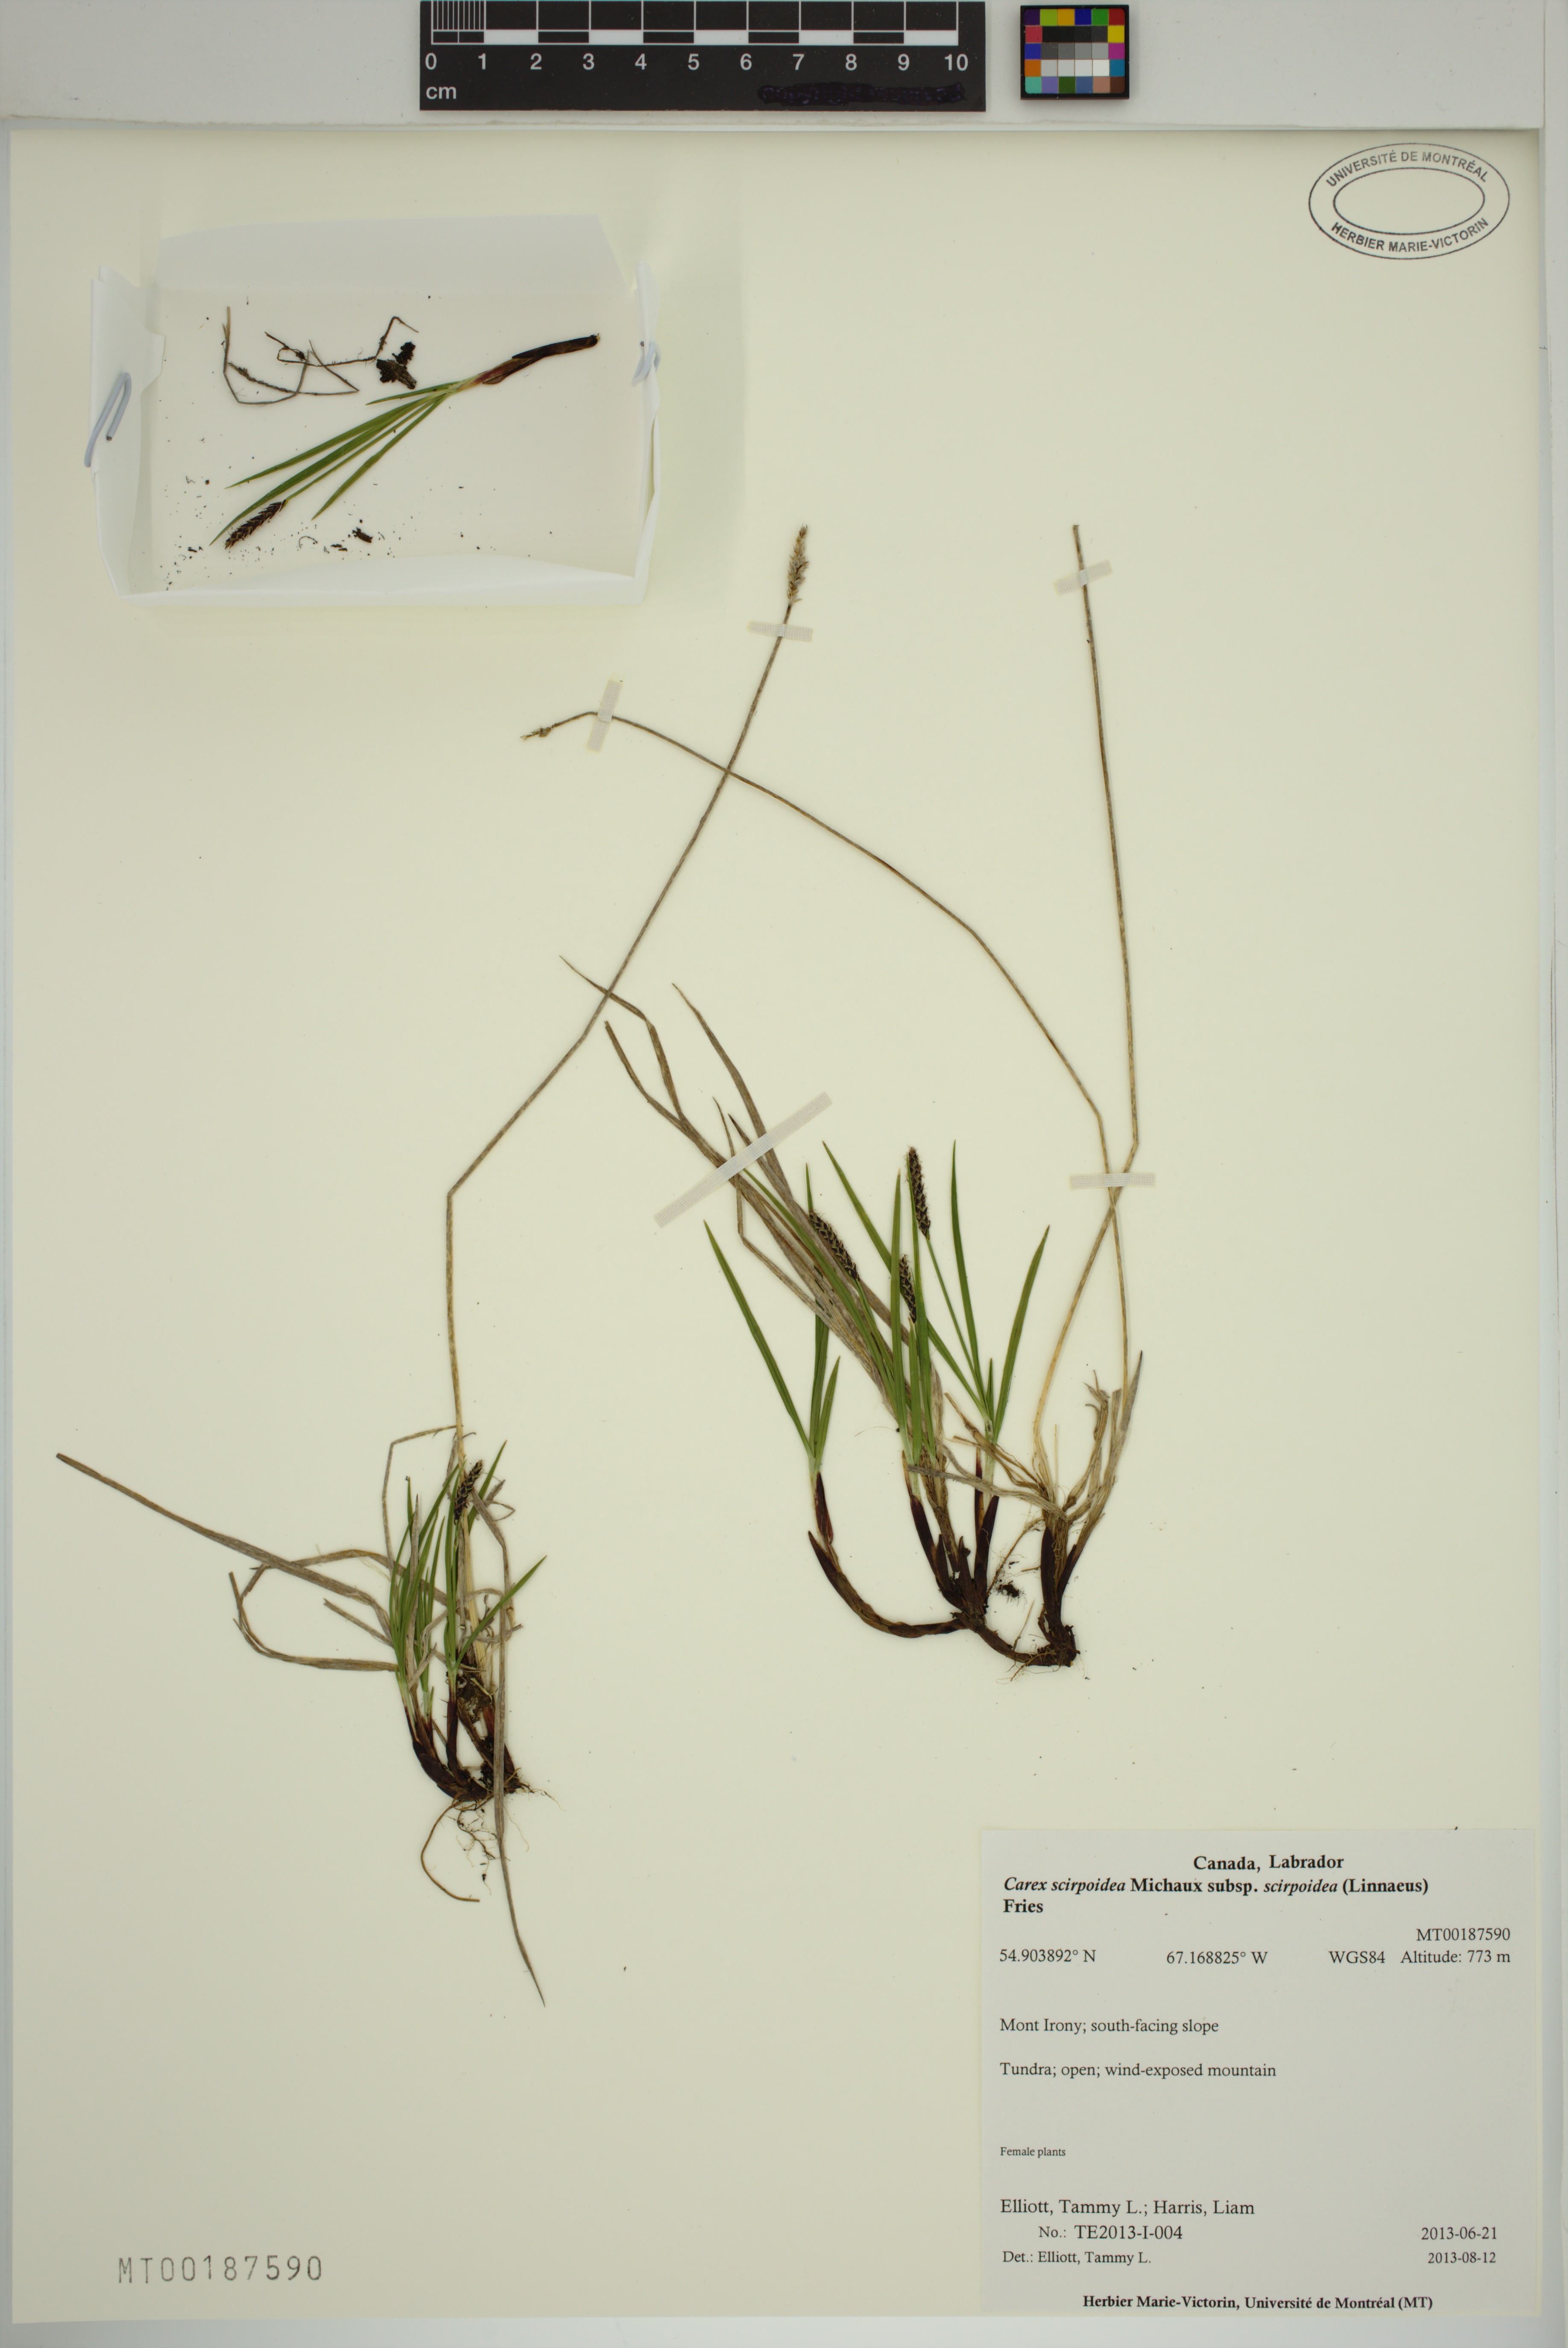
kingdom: Plantae
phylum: Tracheophyta
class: Liliopsida
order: Poales
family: Cyperaceae
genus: Carex
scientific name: Carex scirpoidea
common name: Canada single-spike sedge
